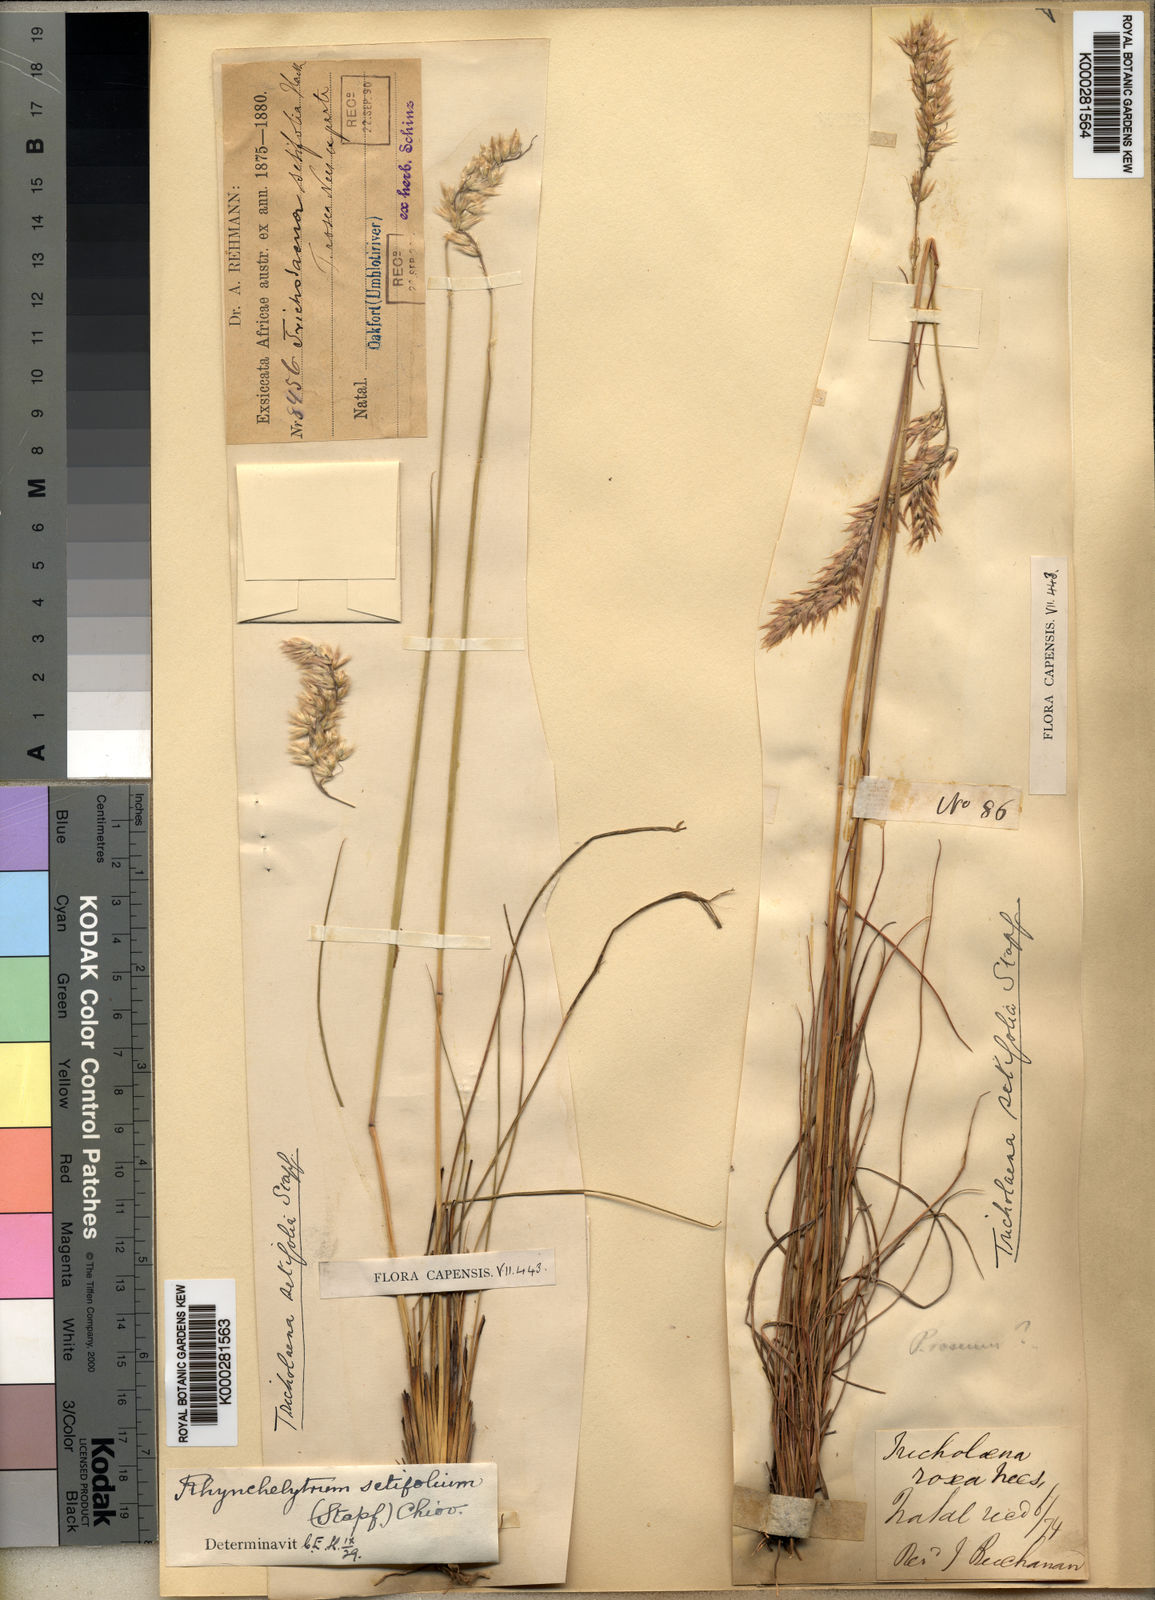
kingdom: Plantae
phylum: Tracheophyta
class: Liliopsida
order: Poales
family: Poaceae
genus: Melinis
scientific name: Melinis nerviglumis
